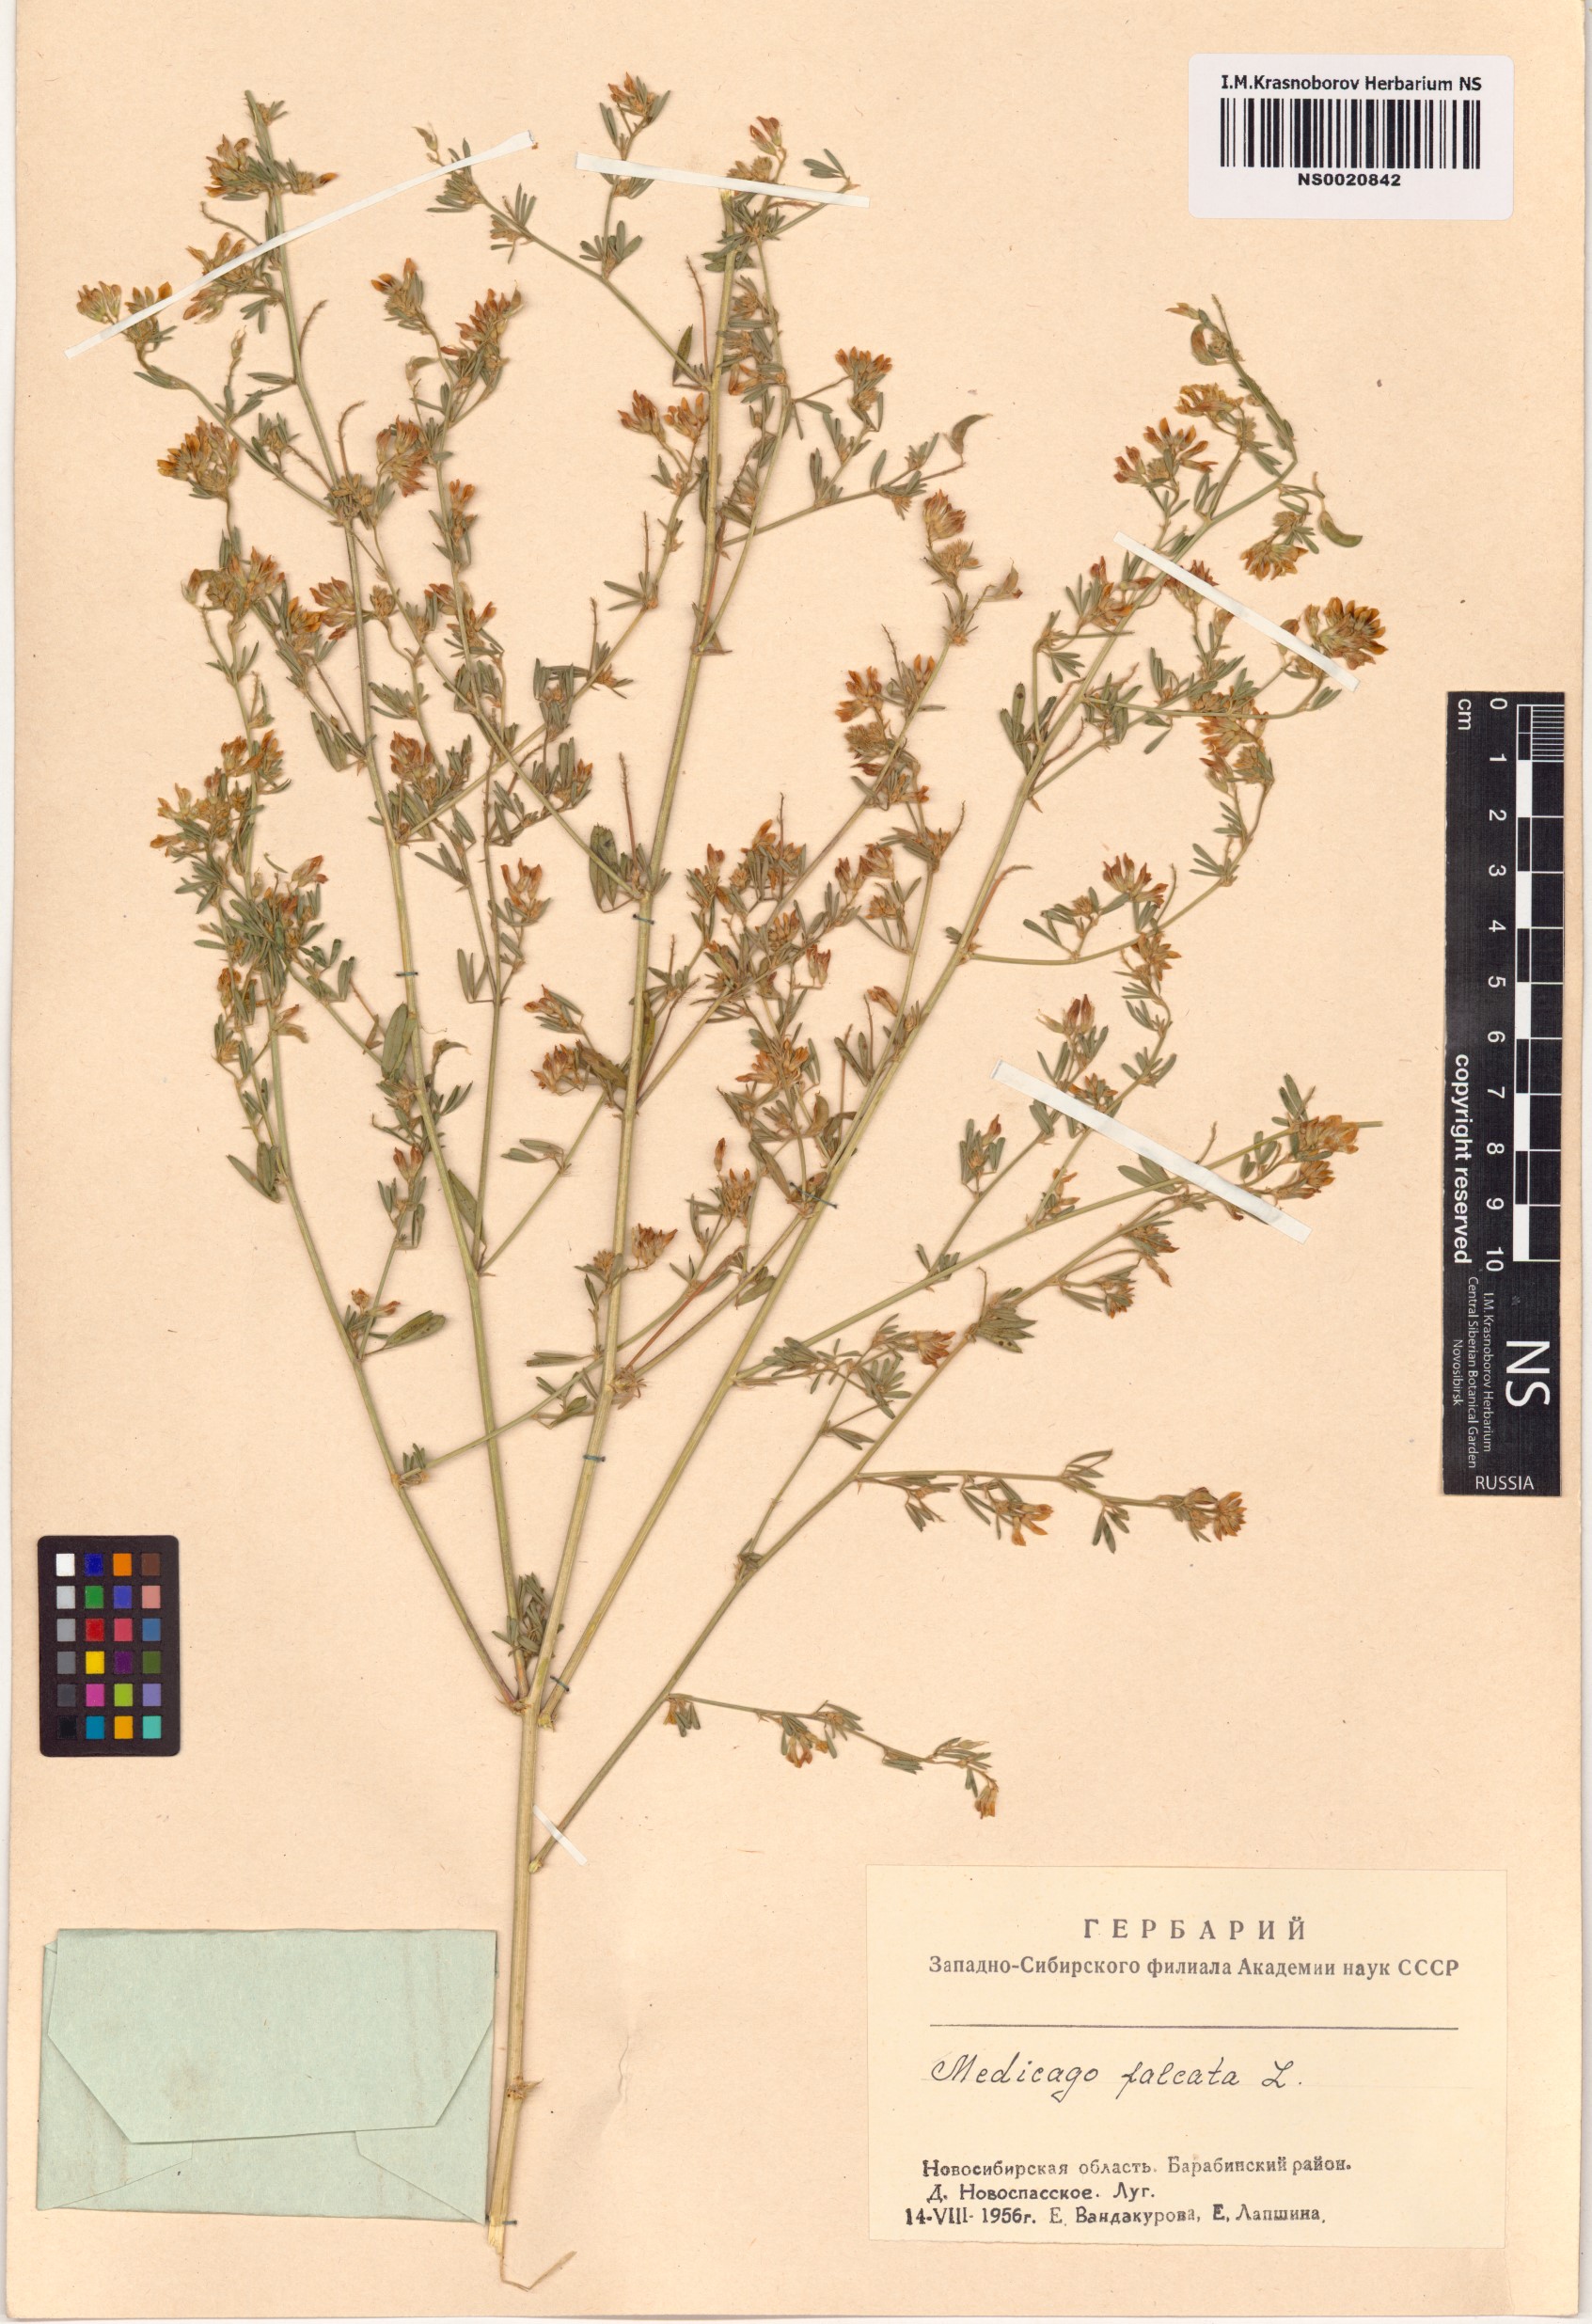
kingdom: Plantae
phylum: Tracheophyta
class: Magnoliopsida
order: Fabales
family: Fabaceae
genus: Medicago
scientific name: Medicago falcata
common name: Sickle medick
